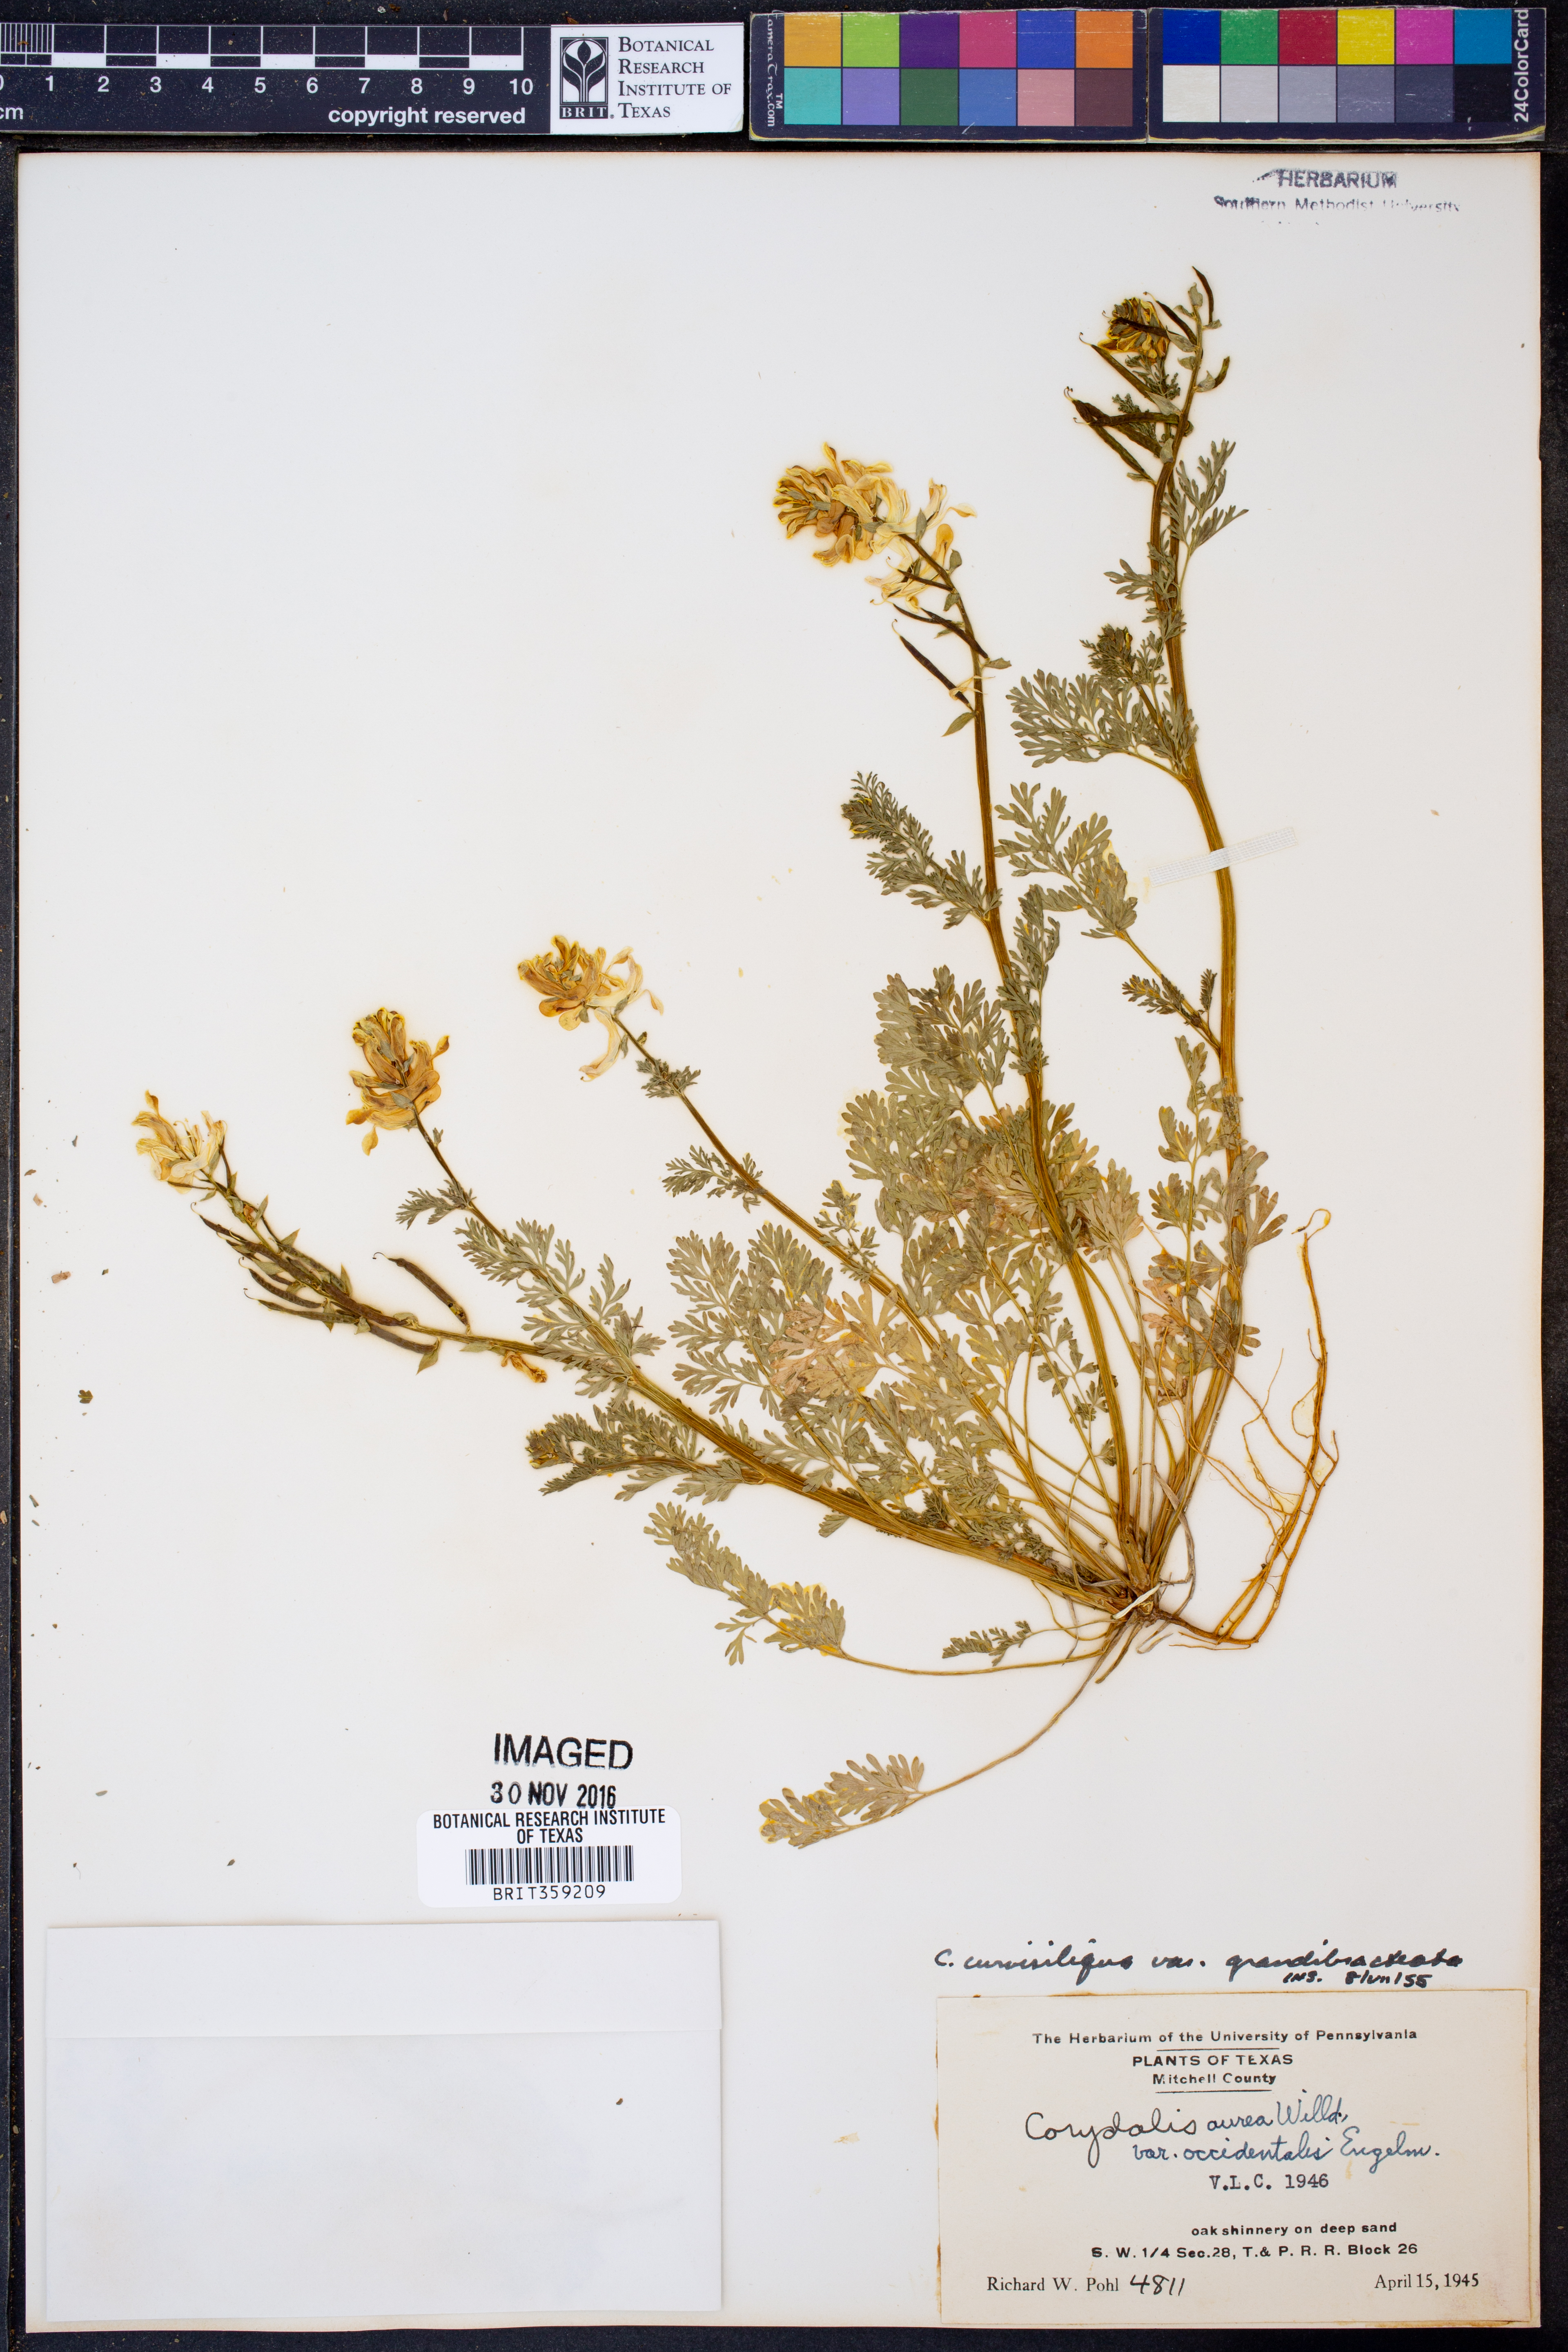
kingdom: Plantae
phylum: Tracheophyta
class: Magnoliopsida
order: Ranunculales
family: Papaveraceae
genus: Corydalis
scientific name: Corydalis curvisiliqua
